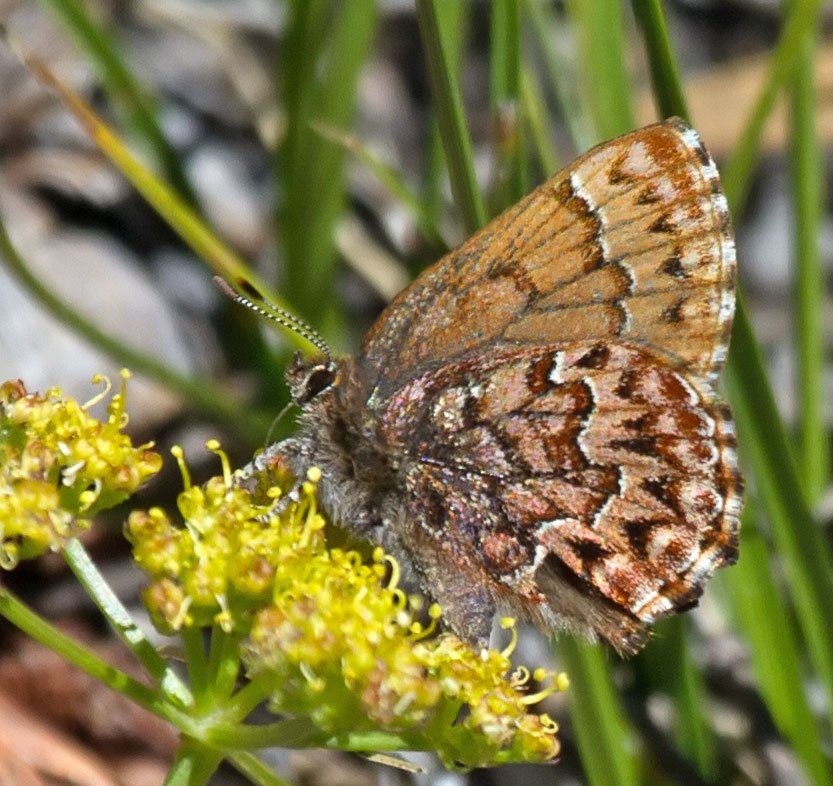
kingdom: Animalia
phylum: Arthropoda
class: Insecta
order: Lepidoptera
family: Lycaenidae
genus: Incisalia
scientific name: Incisalia eryphon
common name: Western Pine Elfin
